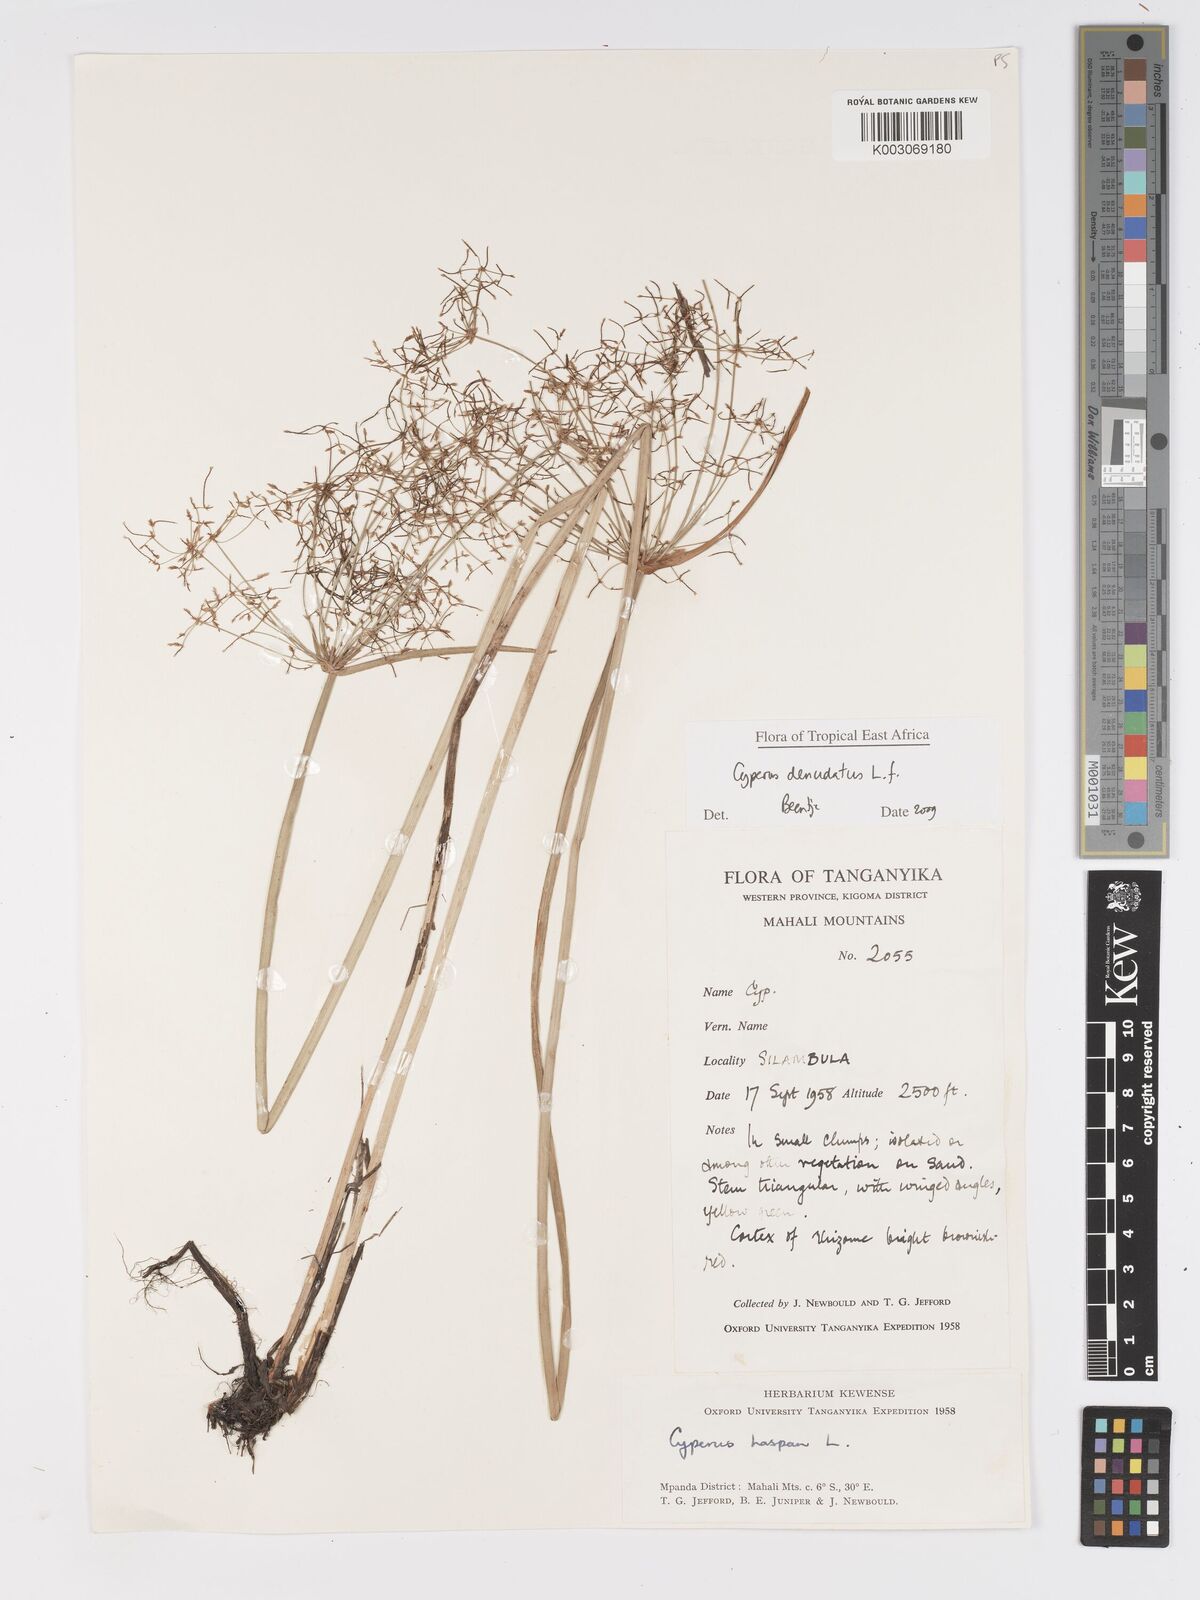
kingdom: Plantae
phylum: Tracheophyta
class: Liliopsida
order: Poales
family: Cyperaceae
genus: Cyperus
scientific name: Cyperus denudatus
